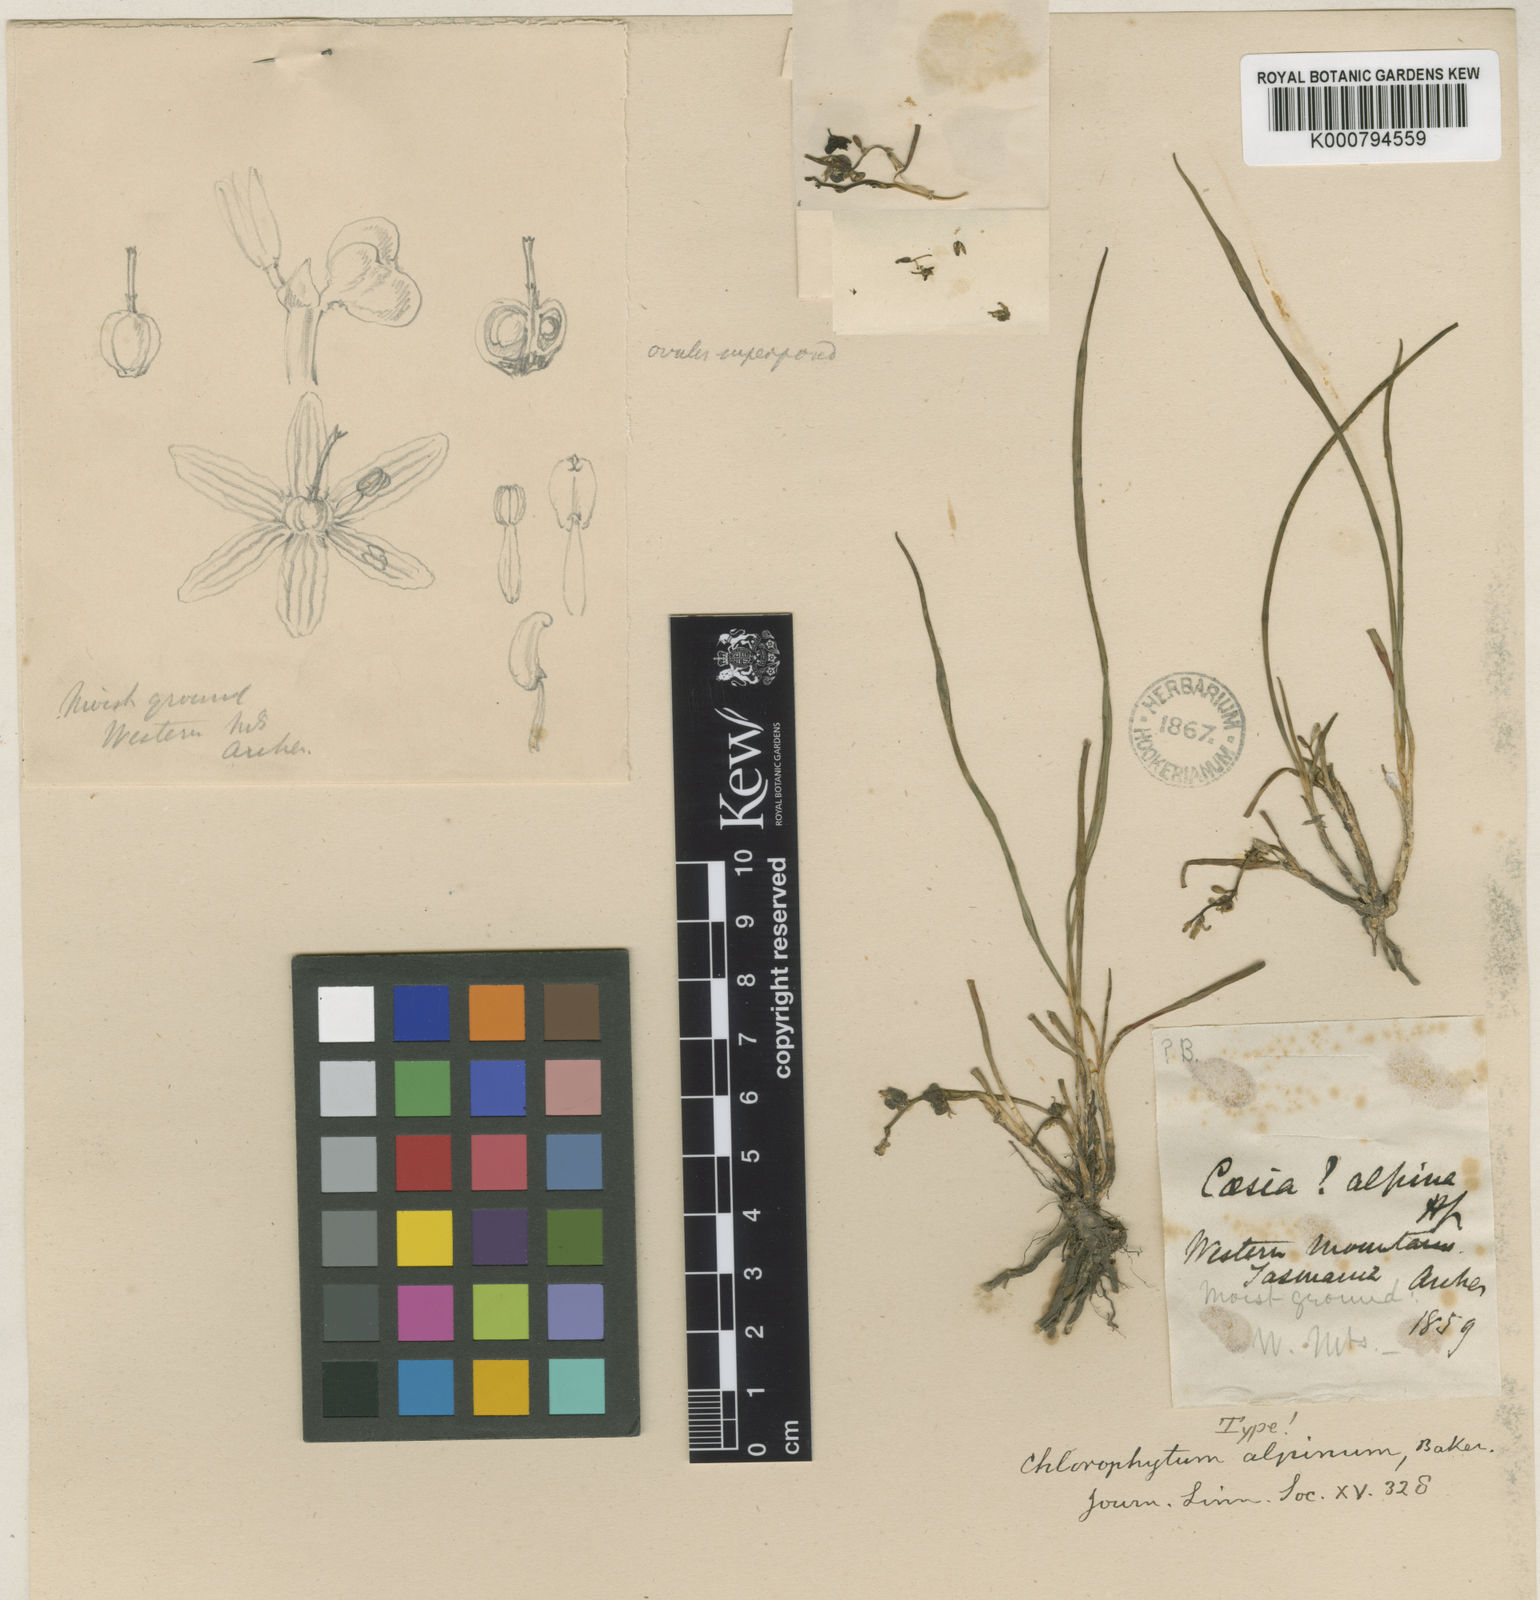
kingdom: Plantae
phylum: Tracheophyta
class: Liliopsida
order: Asparagales
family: Asparagaceae
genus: Chlorophytum
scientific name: Chlorophytum alpinum
